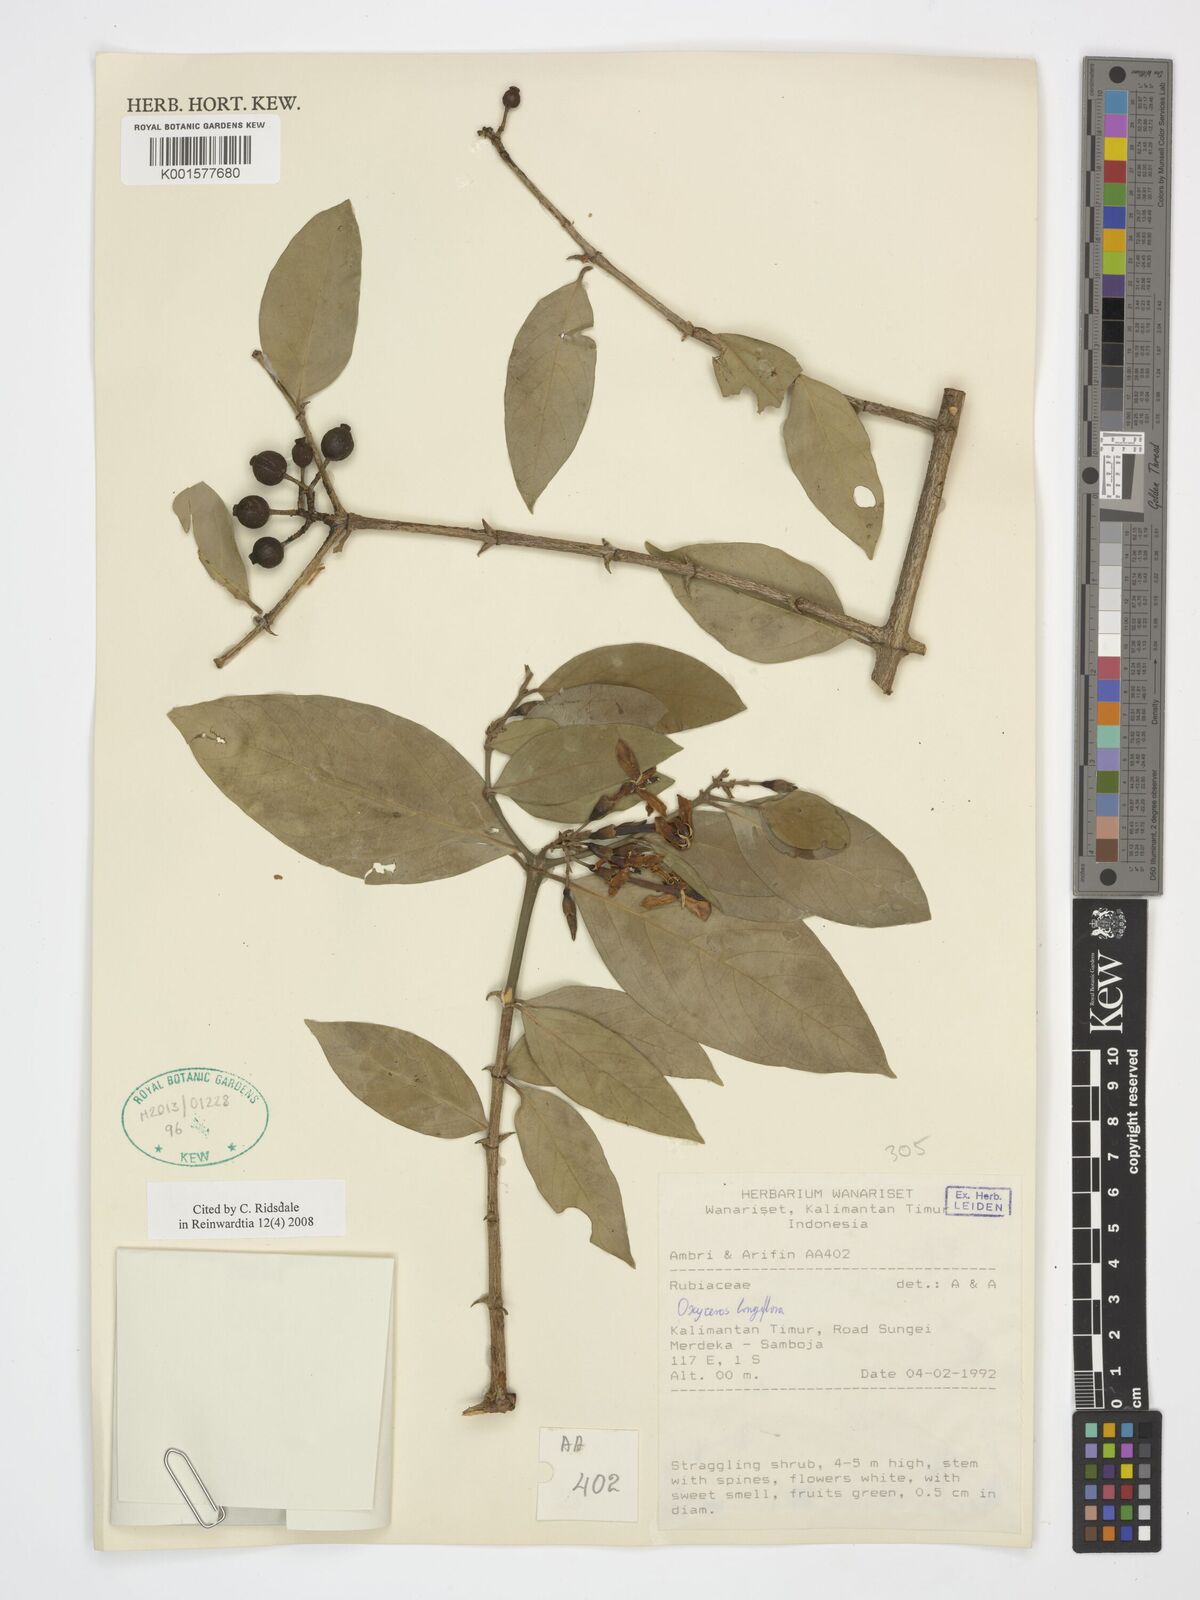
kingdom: Plantae
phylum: Tracheophyta
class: Magnoliopsida
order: Gentianales
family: Rubiaceae
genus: Oxyceros
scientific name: Oxyceros longiflorus
